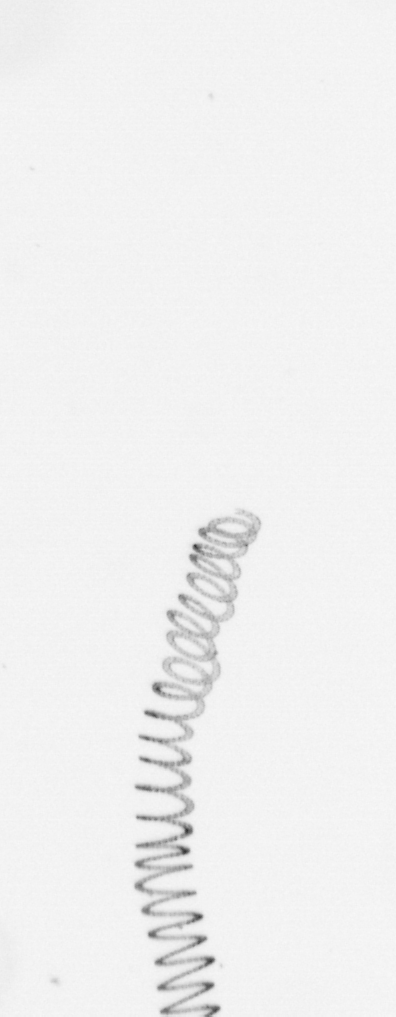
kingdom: Chromista
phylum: Ochrophyta
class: Bacillariophyceae
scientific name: Bacillariophyceae
